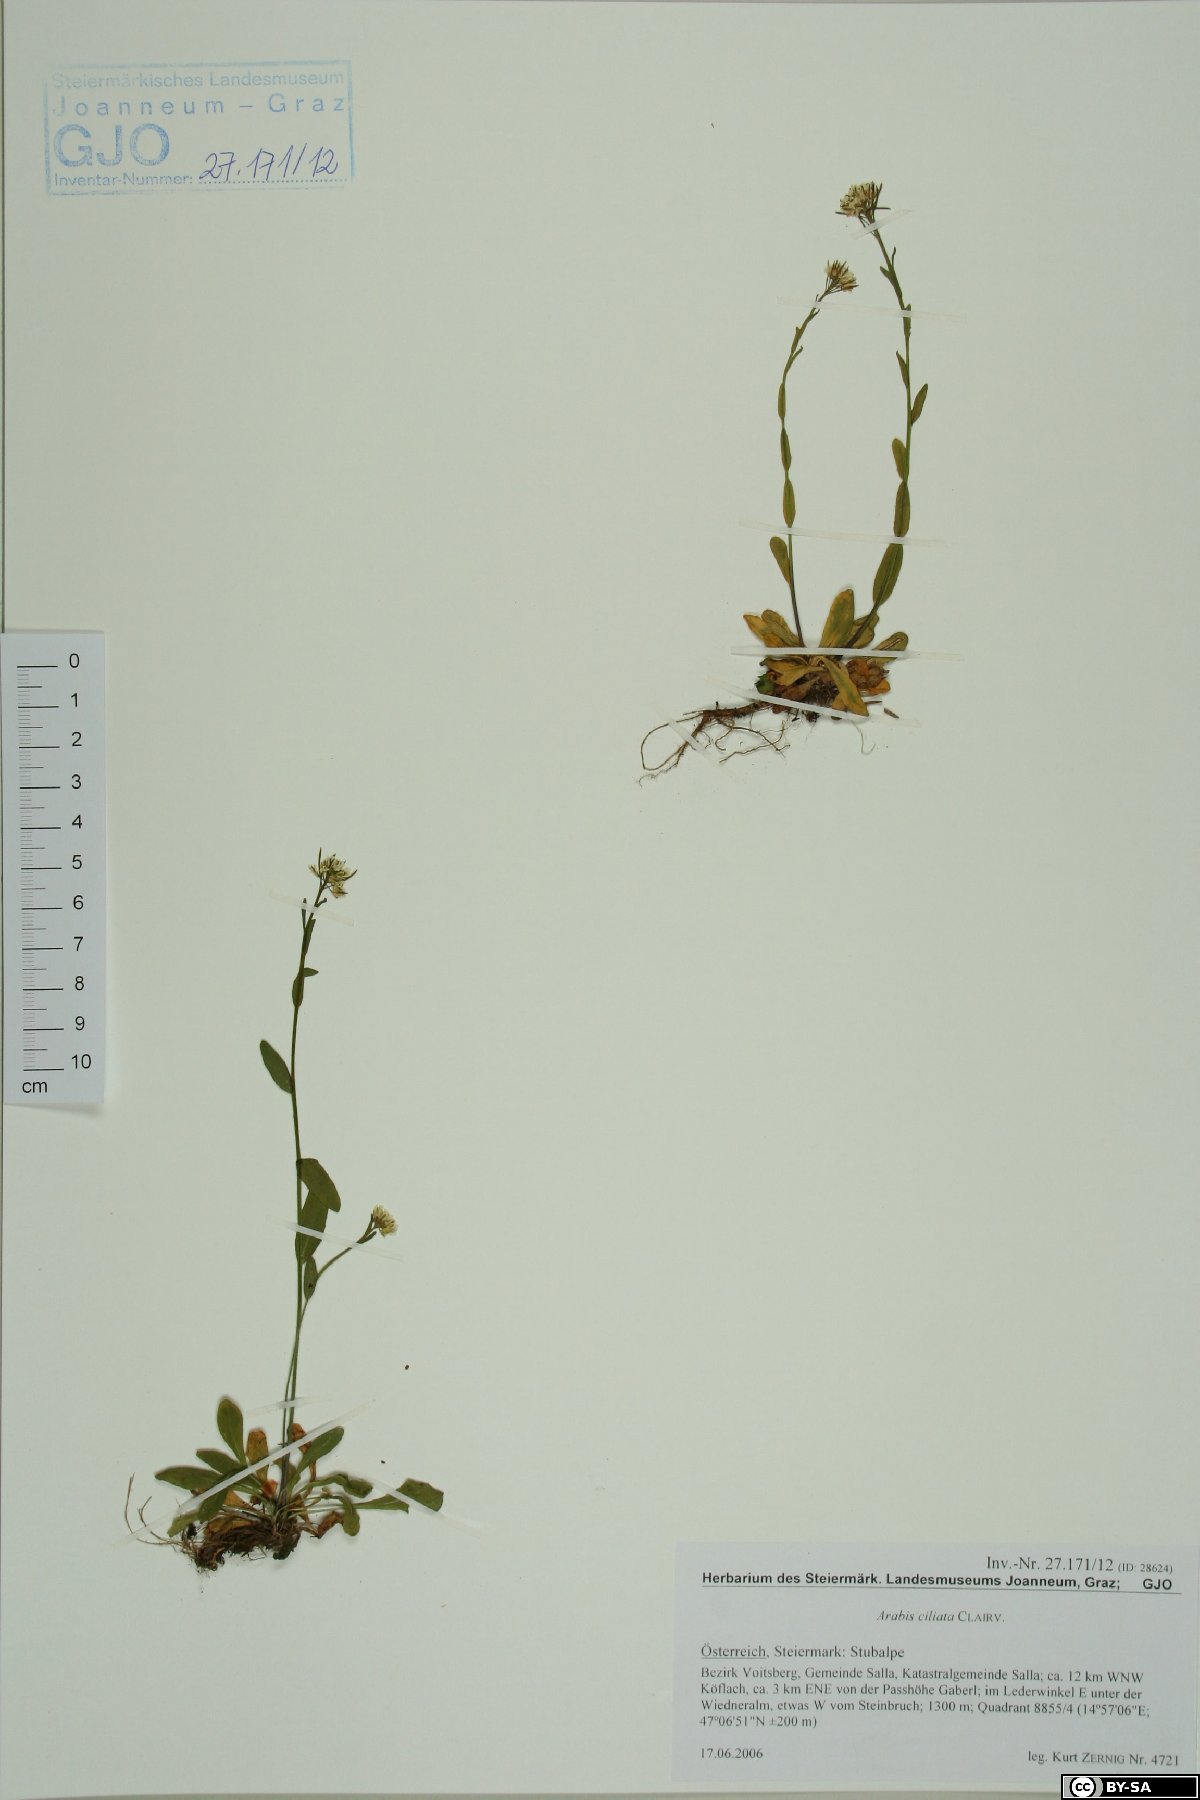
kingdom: Plantae
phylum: Tracheophyta
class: Magnoliopsida
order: Brassicales
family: Brassicaceae
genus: Arabis
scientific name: Arabis ciliata
